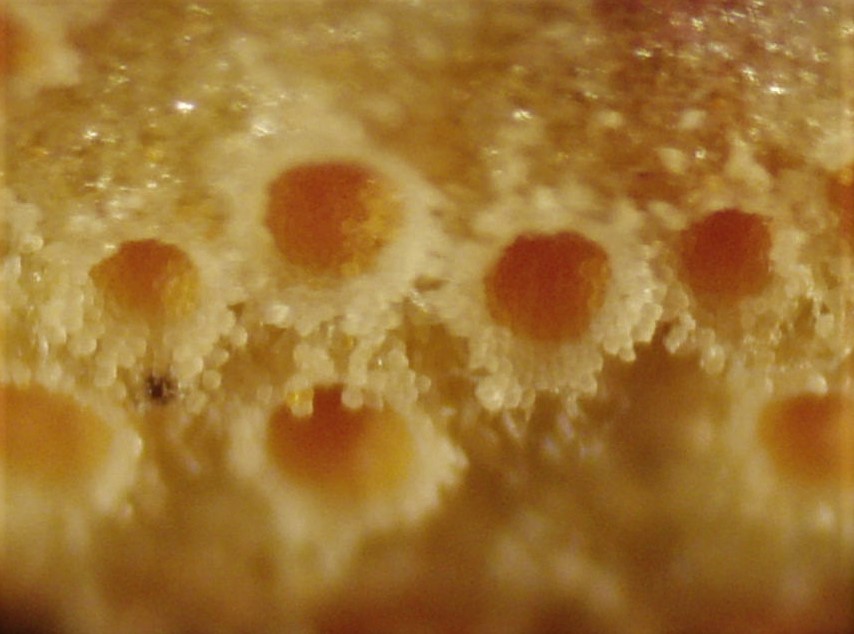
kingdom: Fungi
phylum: Basidiomycota
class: Pucciniomycetes
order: Pucciniales
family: Pucciniaceae
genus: Puccinia
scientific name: Puccinia punctata
